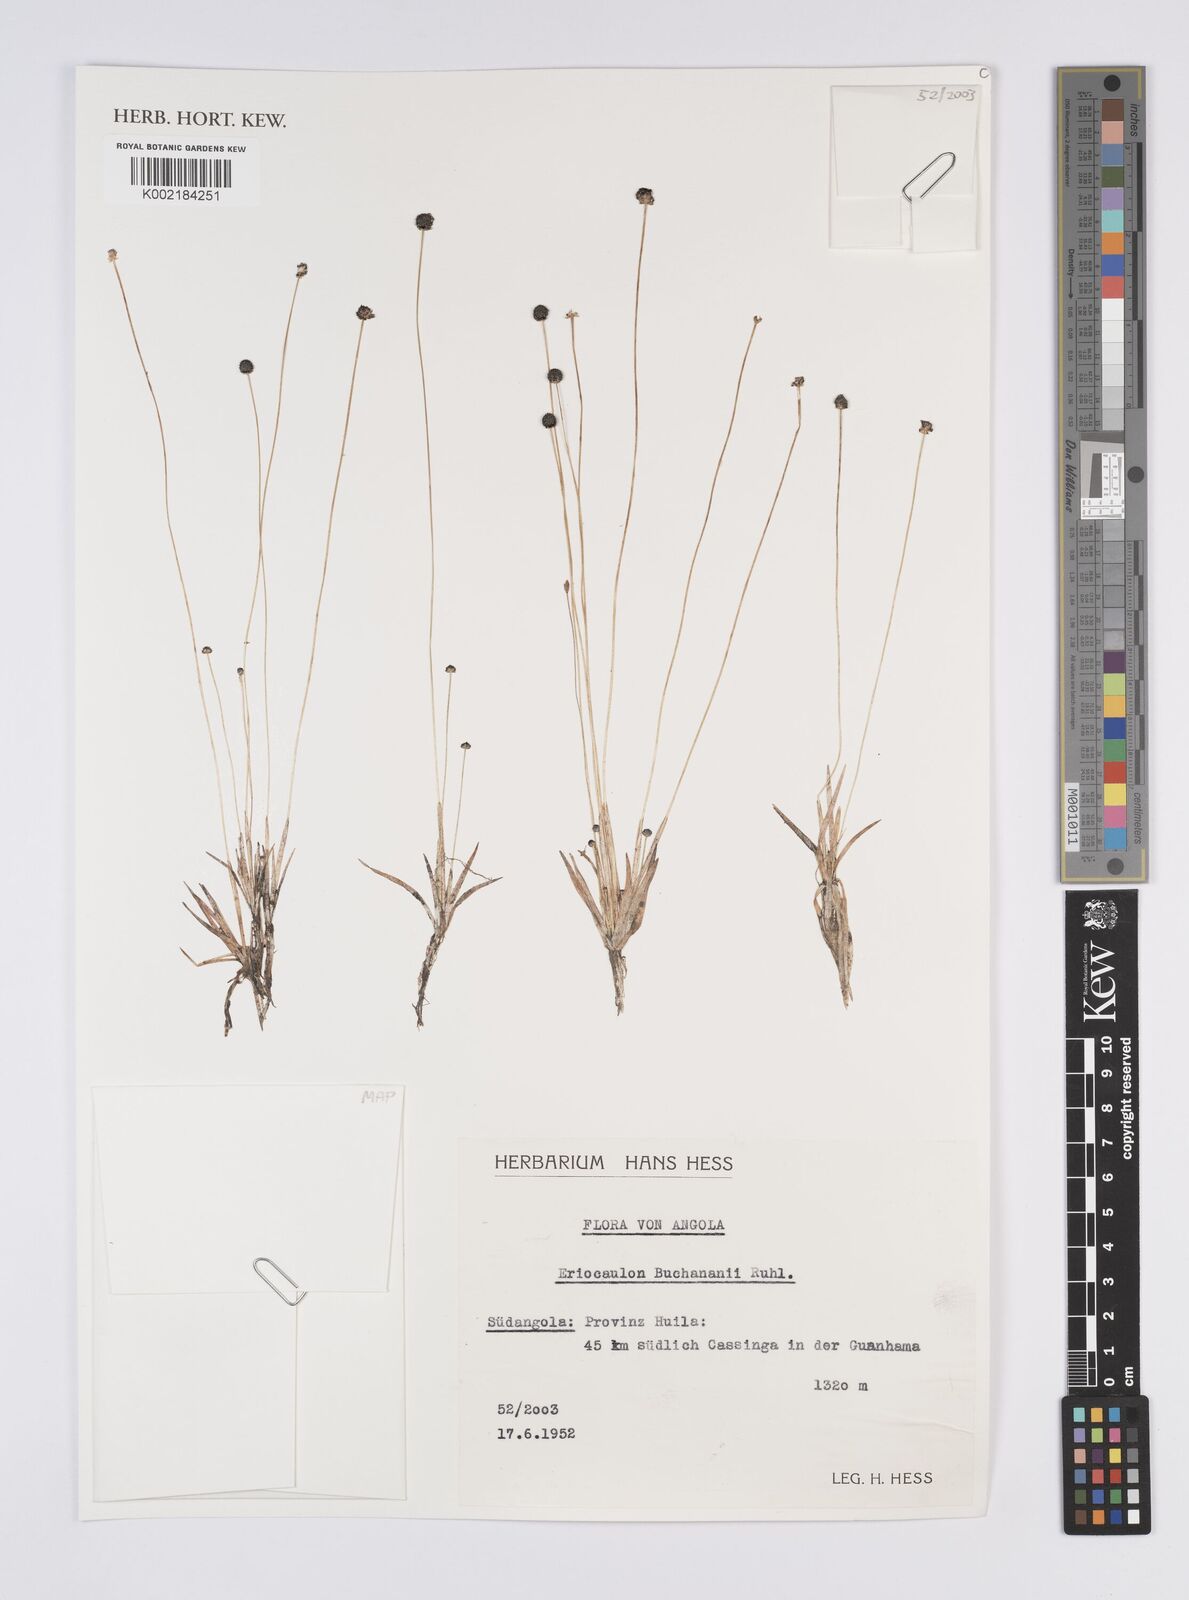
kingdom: Plantae
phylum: Tracheophyta
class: Liliopsida
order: Poales
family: Eriocaulaceae
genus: Eriocaulon
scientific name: Eriocaulon buchananii
